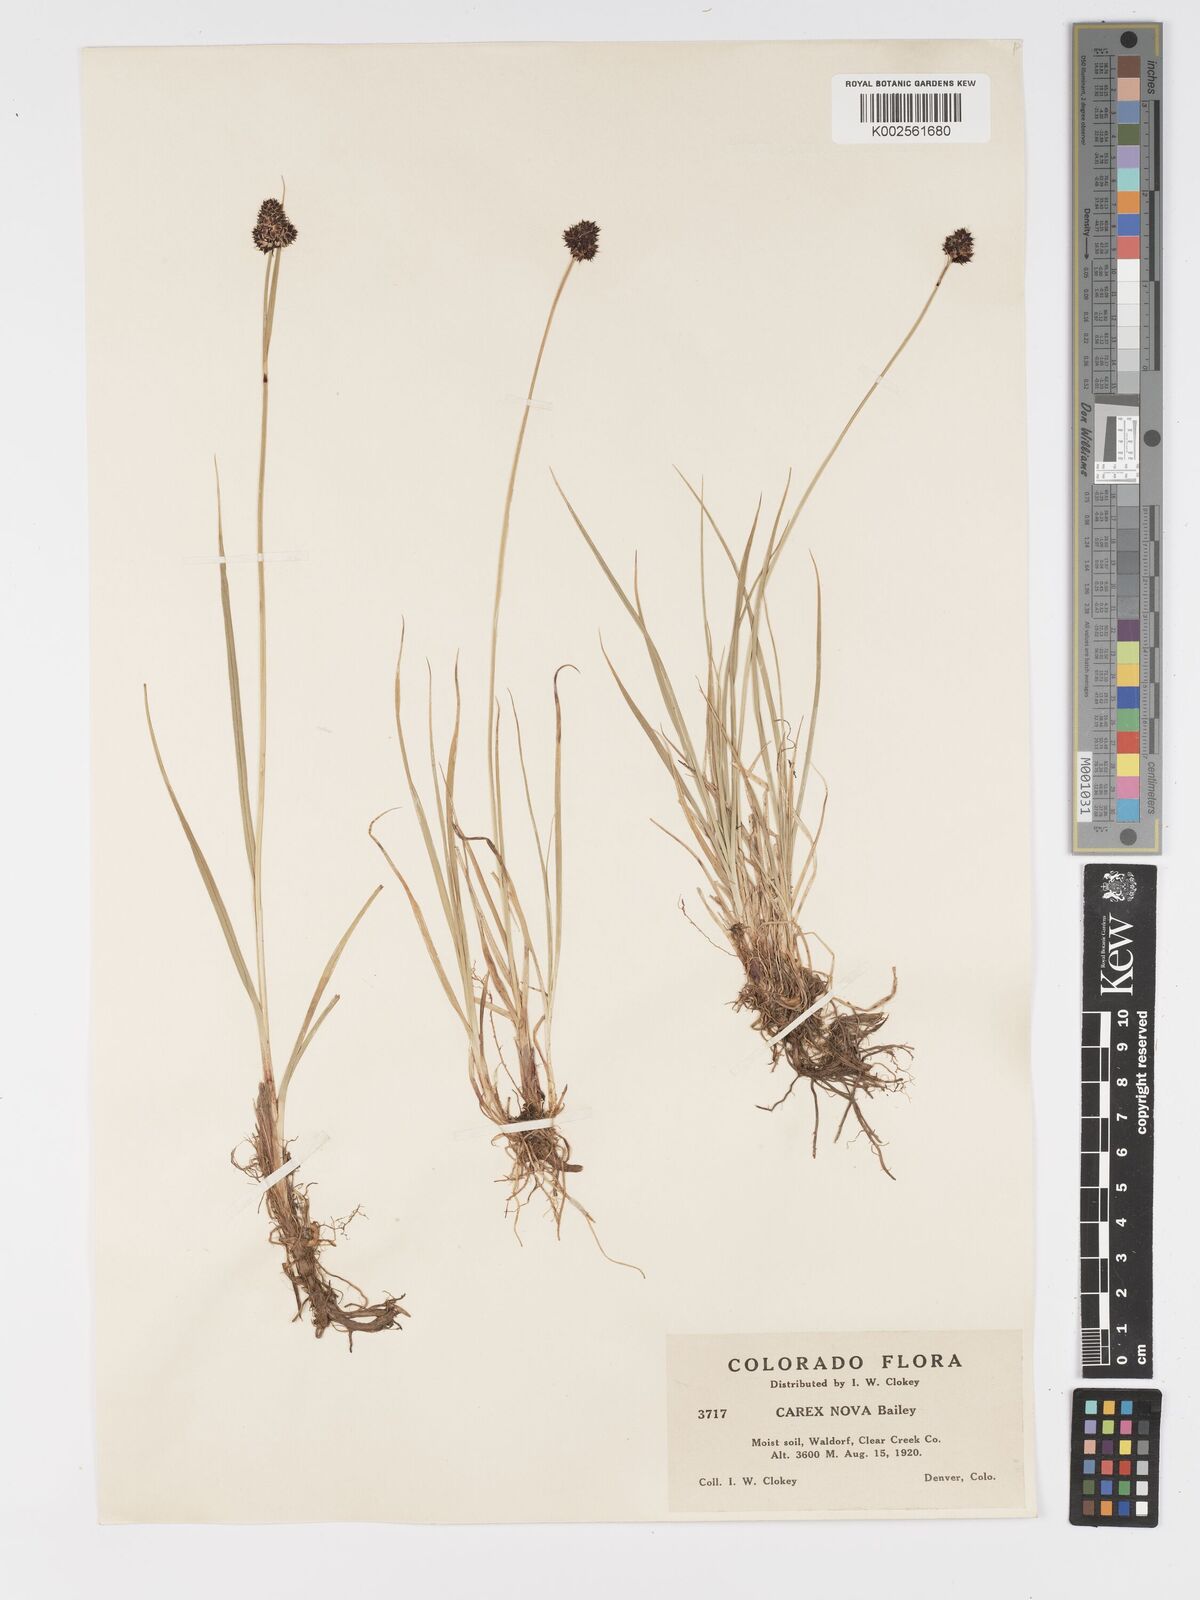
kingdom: Plantae
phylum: Tracheophyta
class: Liliopsida
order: Poales
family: Cyperaceae
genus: Carex
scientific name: Carex nova
